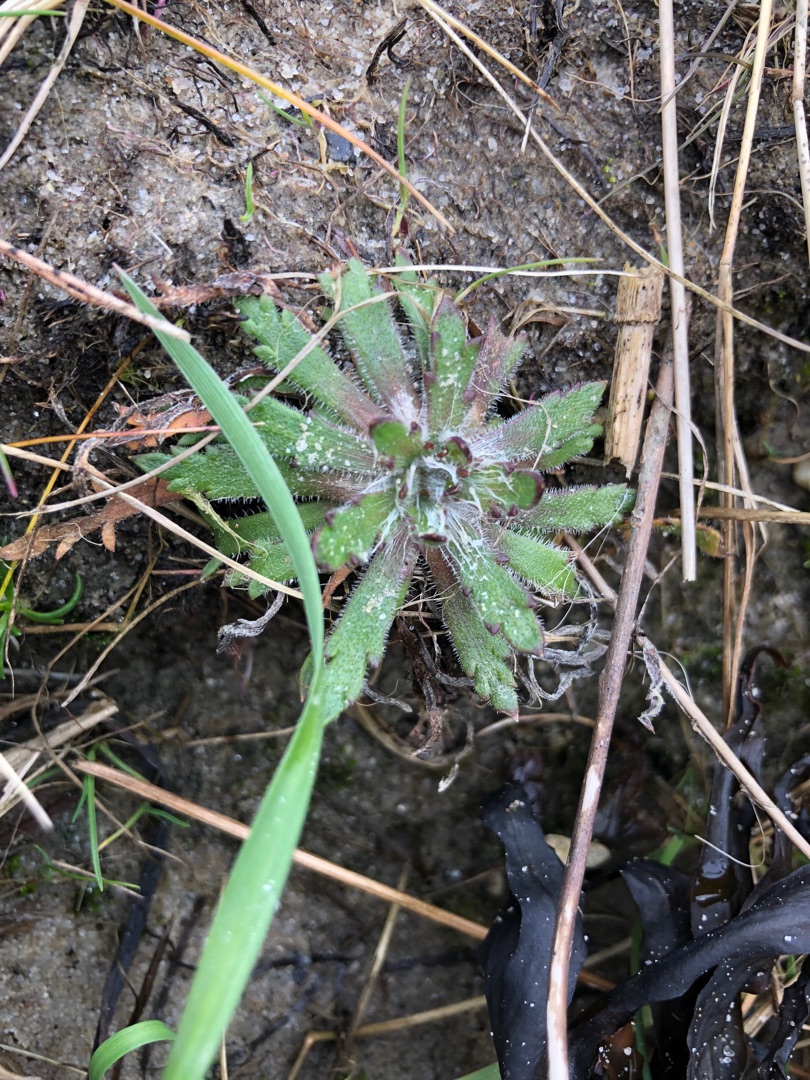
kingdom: Plantae
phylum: Tracheophyta
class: Magnoliopsida
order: Lamiales
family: Plantaginaceae
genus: Plantago
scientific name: Plantago coronopus
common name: Fliget vejbred
